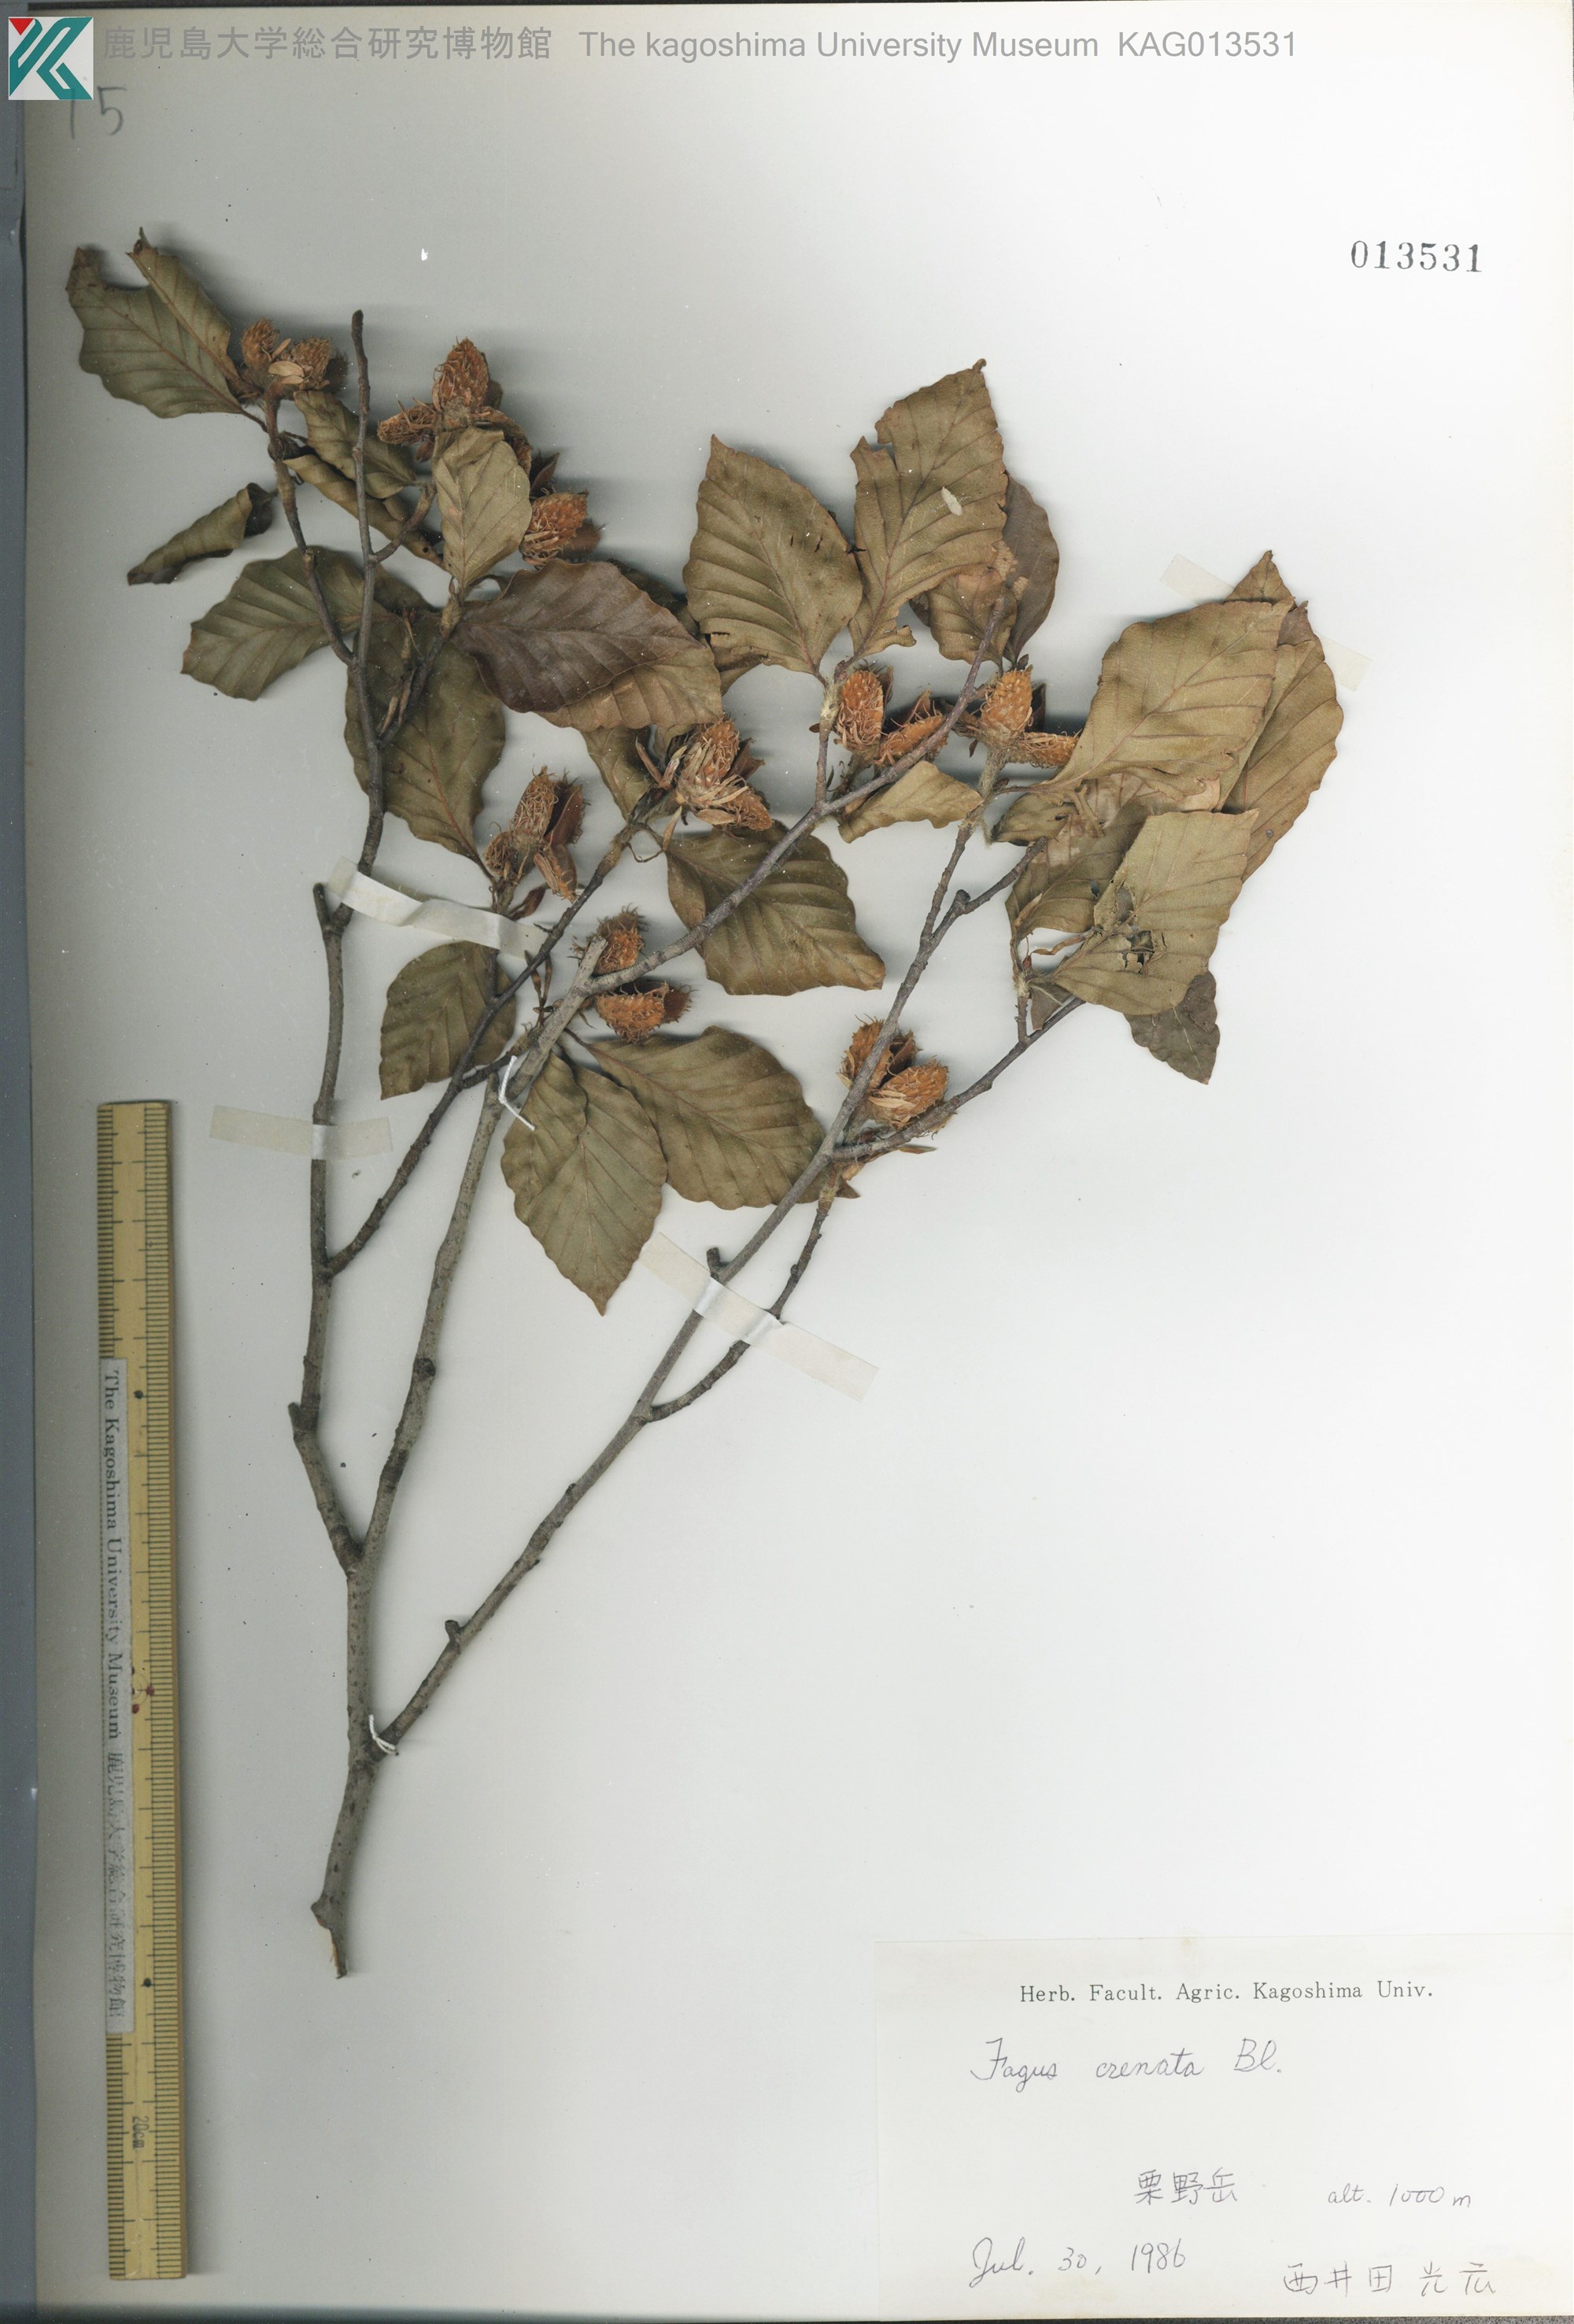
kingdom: Plantae
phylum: Tracheophyta
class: Magnoliopsida
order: Fagales
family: Fagaceae
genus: Fagus
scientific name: Fagus crenata
